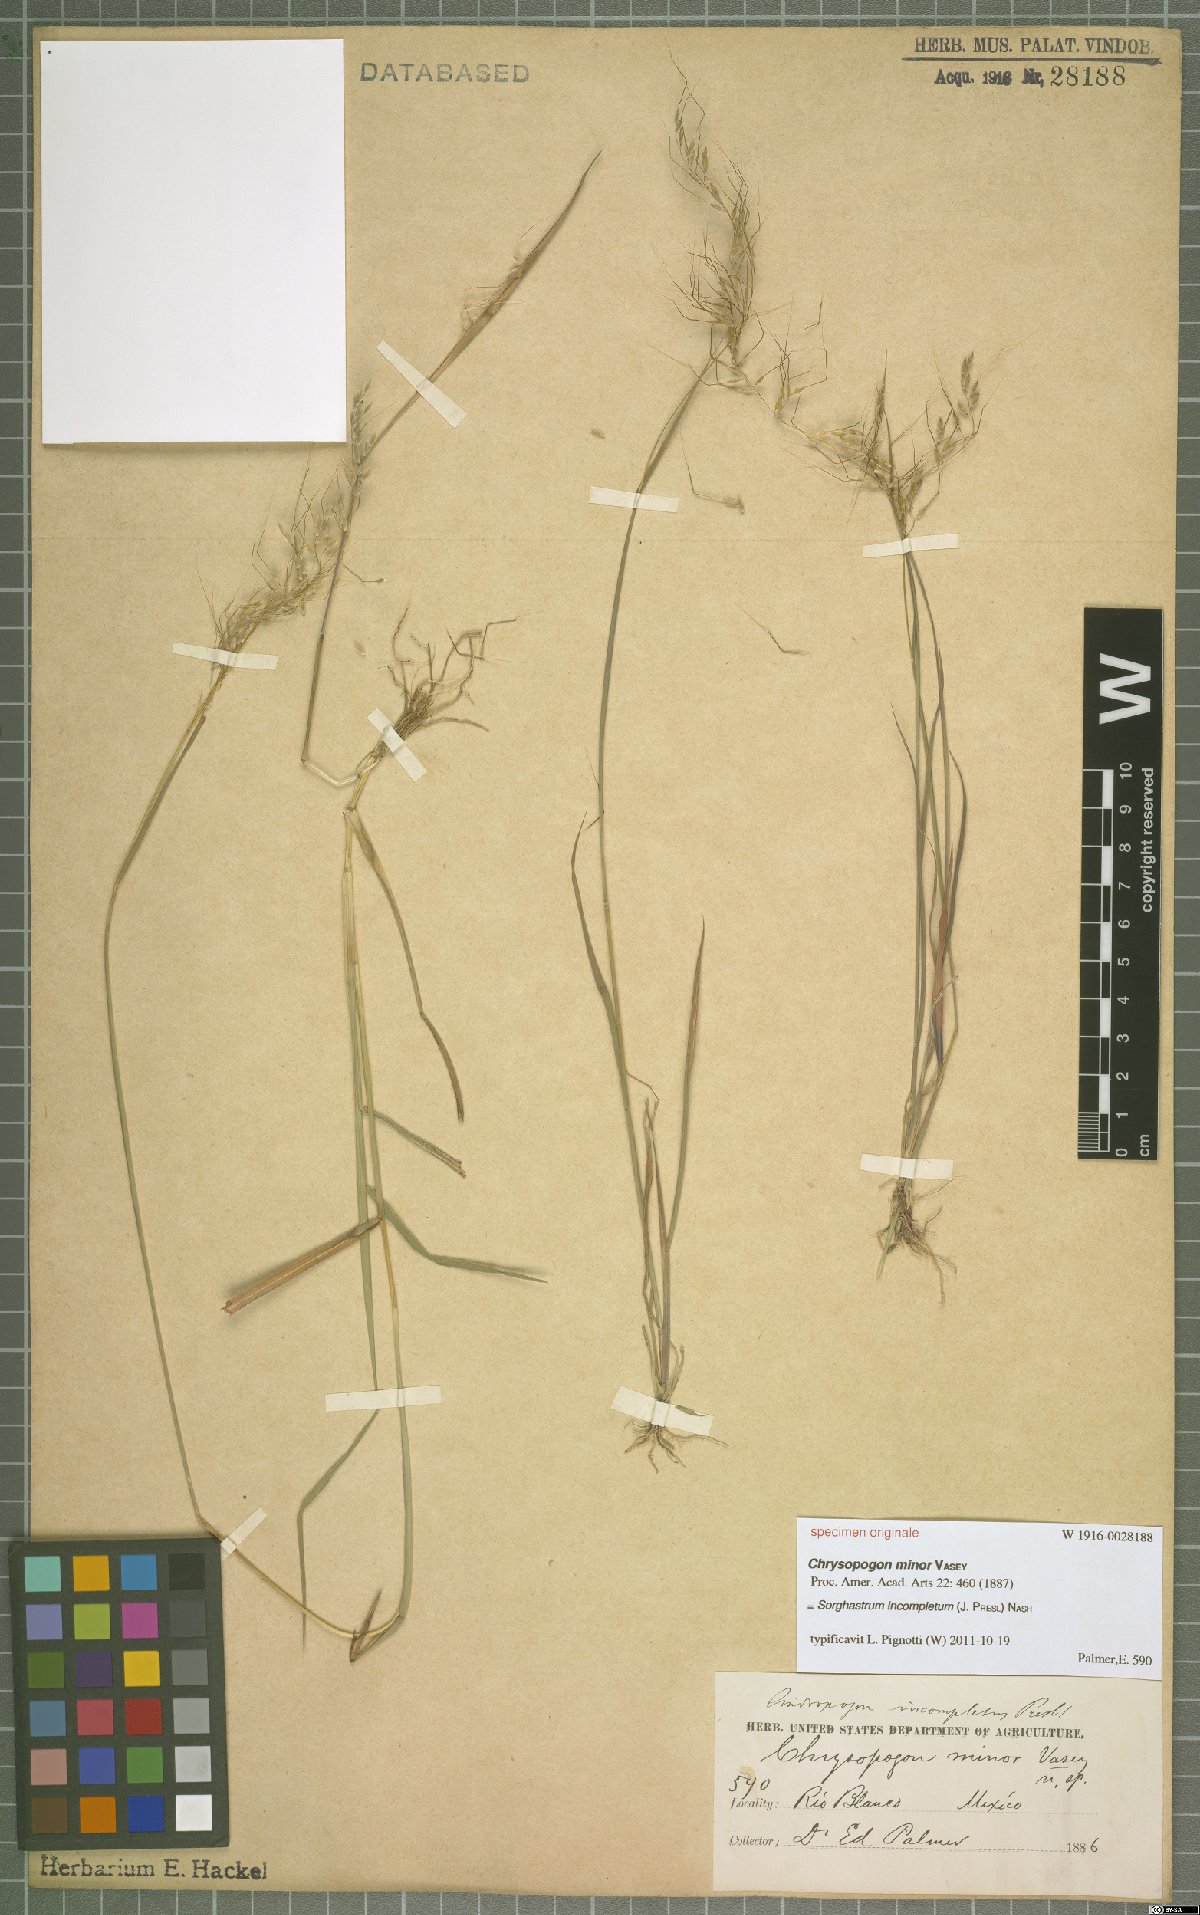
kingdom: Plantae
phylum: Tracheophyta
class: Liliopsida
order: Poales
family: Poaceae
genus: Sorghastrum
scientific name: Sorghastrum incompletum
